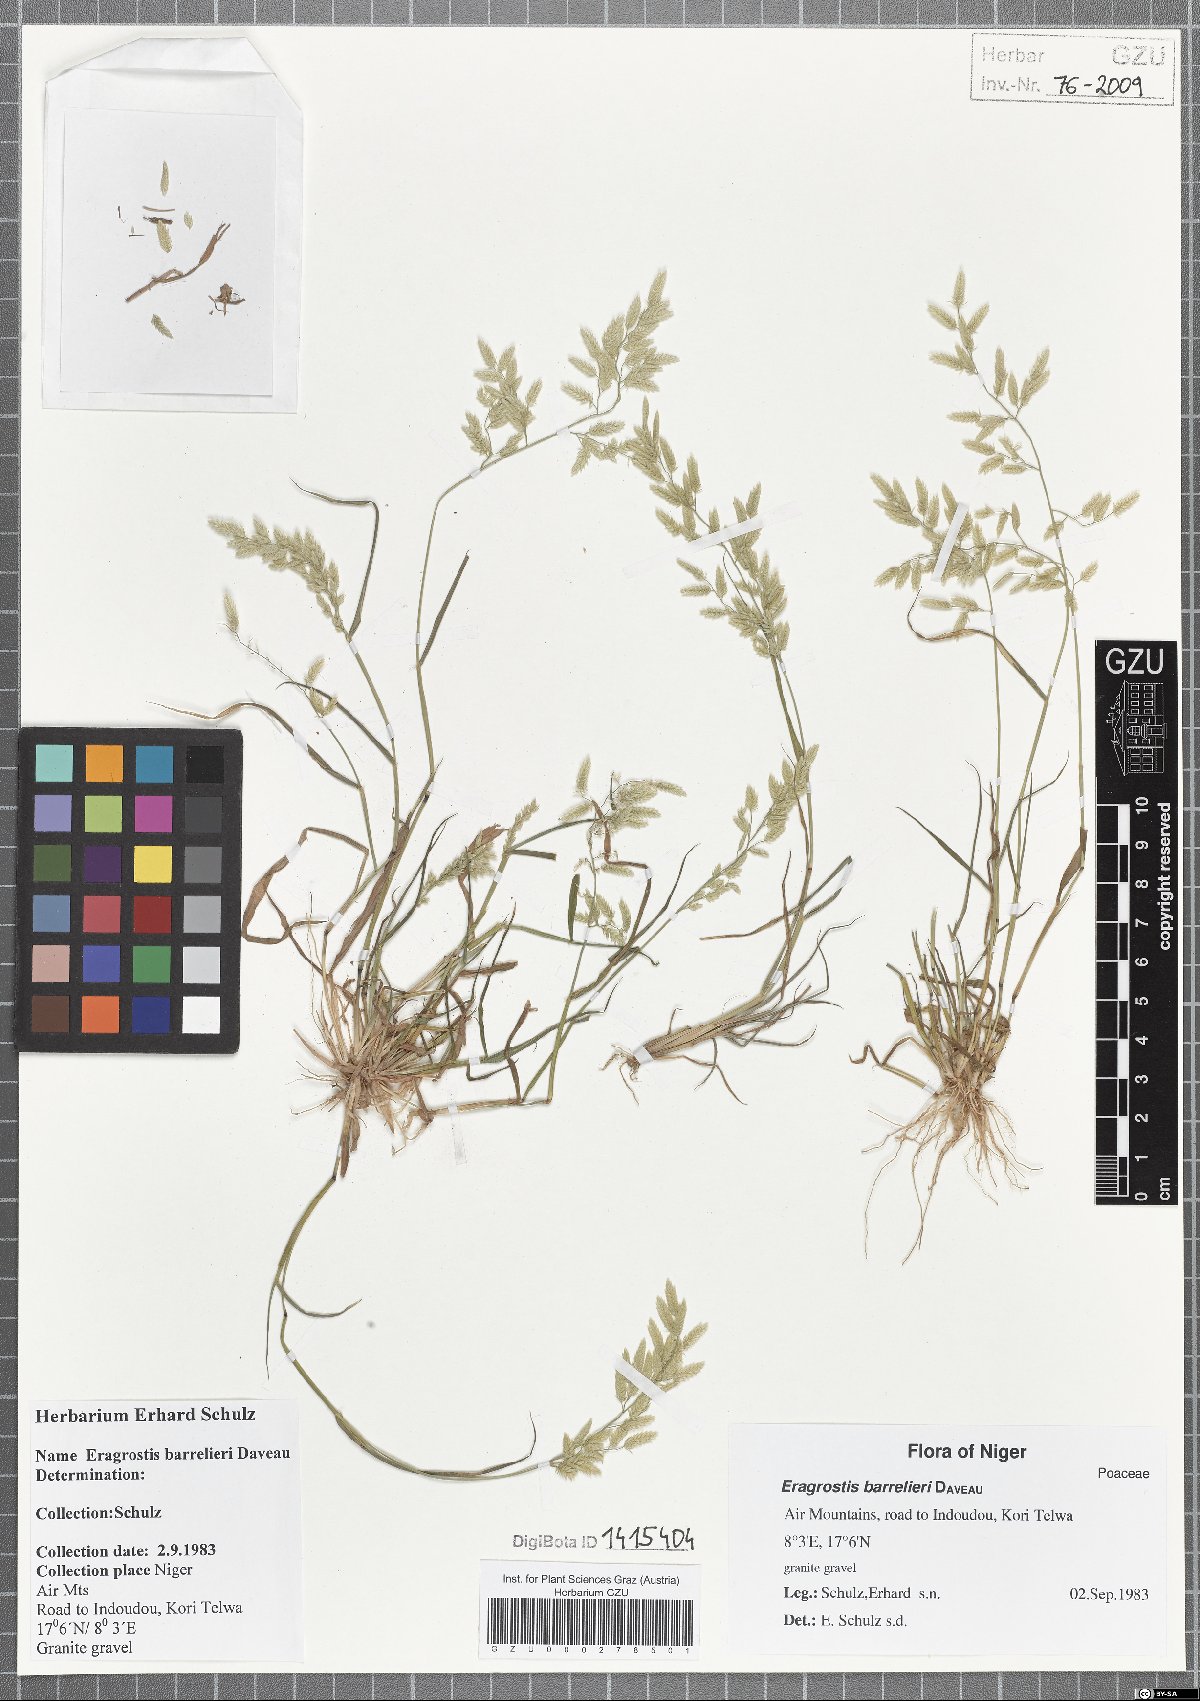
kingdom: Plantae
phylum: Tracheophyta
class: Liliopsida
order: Poales
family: Poaceae
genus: Eragrostis
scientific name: Eragrostis barrelieri
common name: Mediterranean lovegrass
